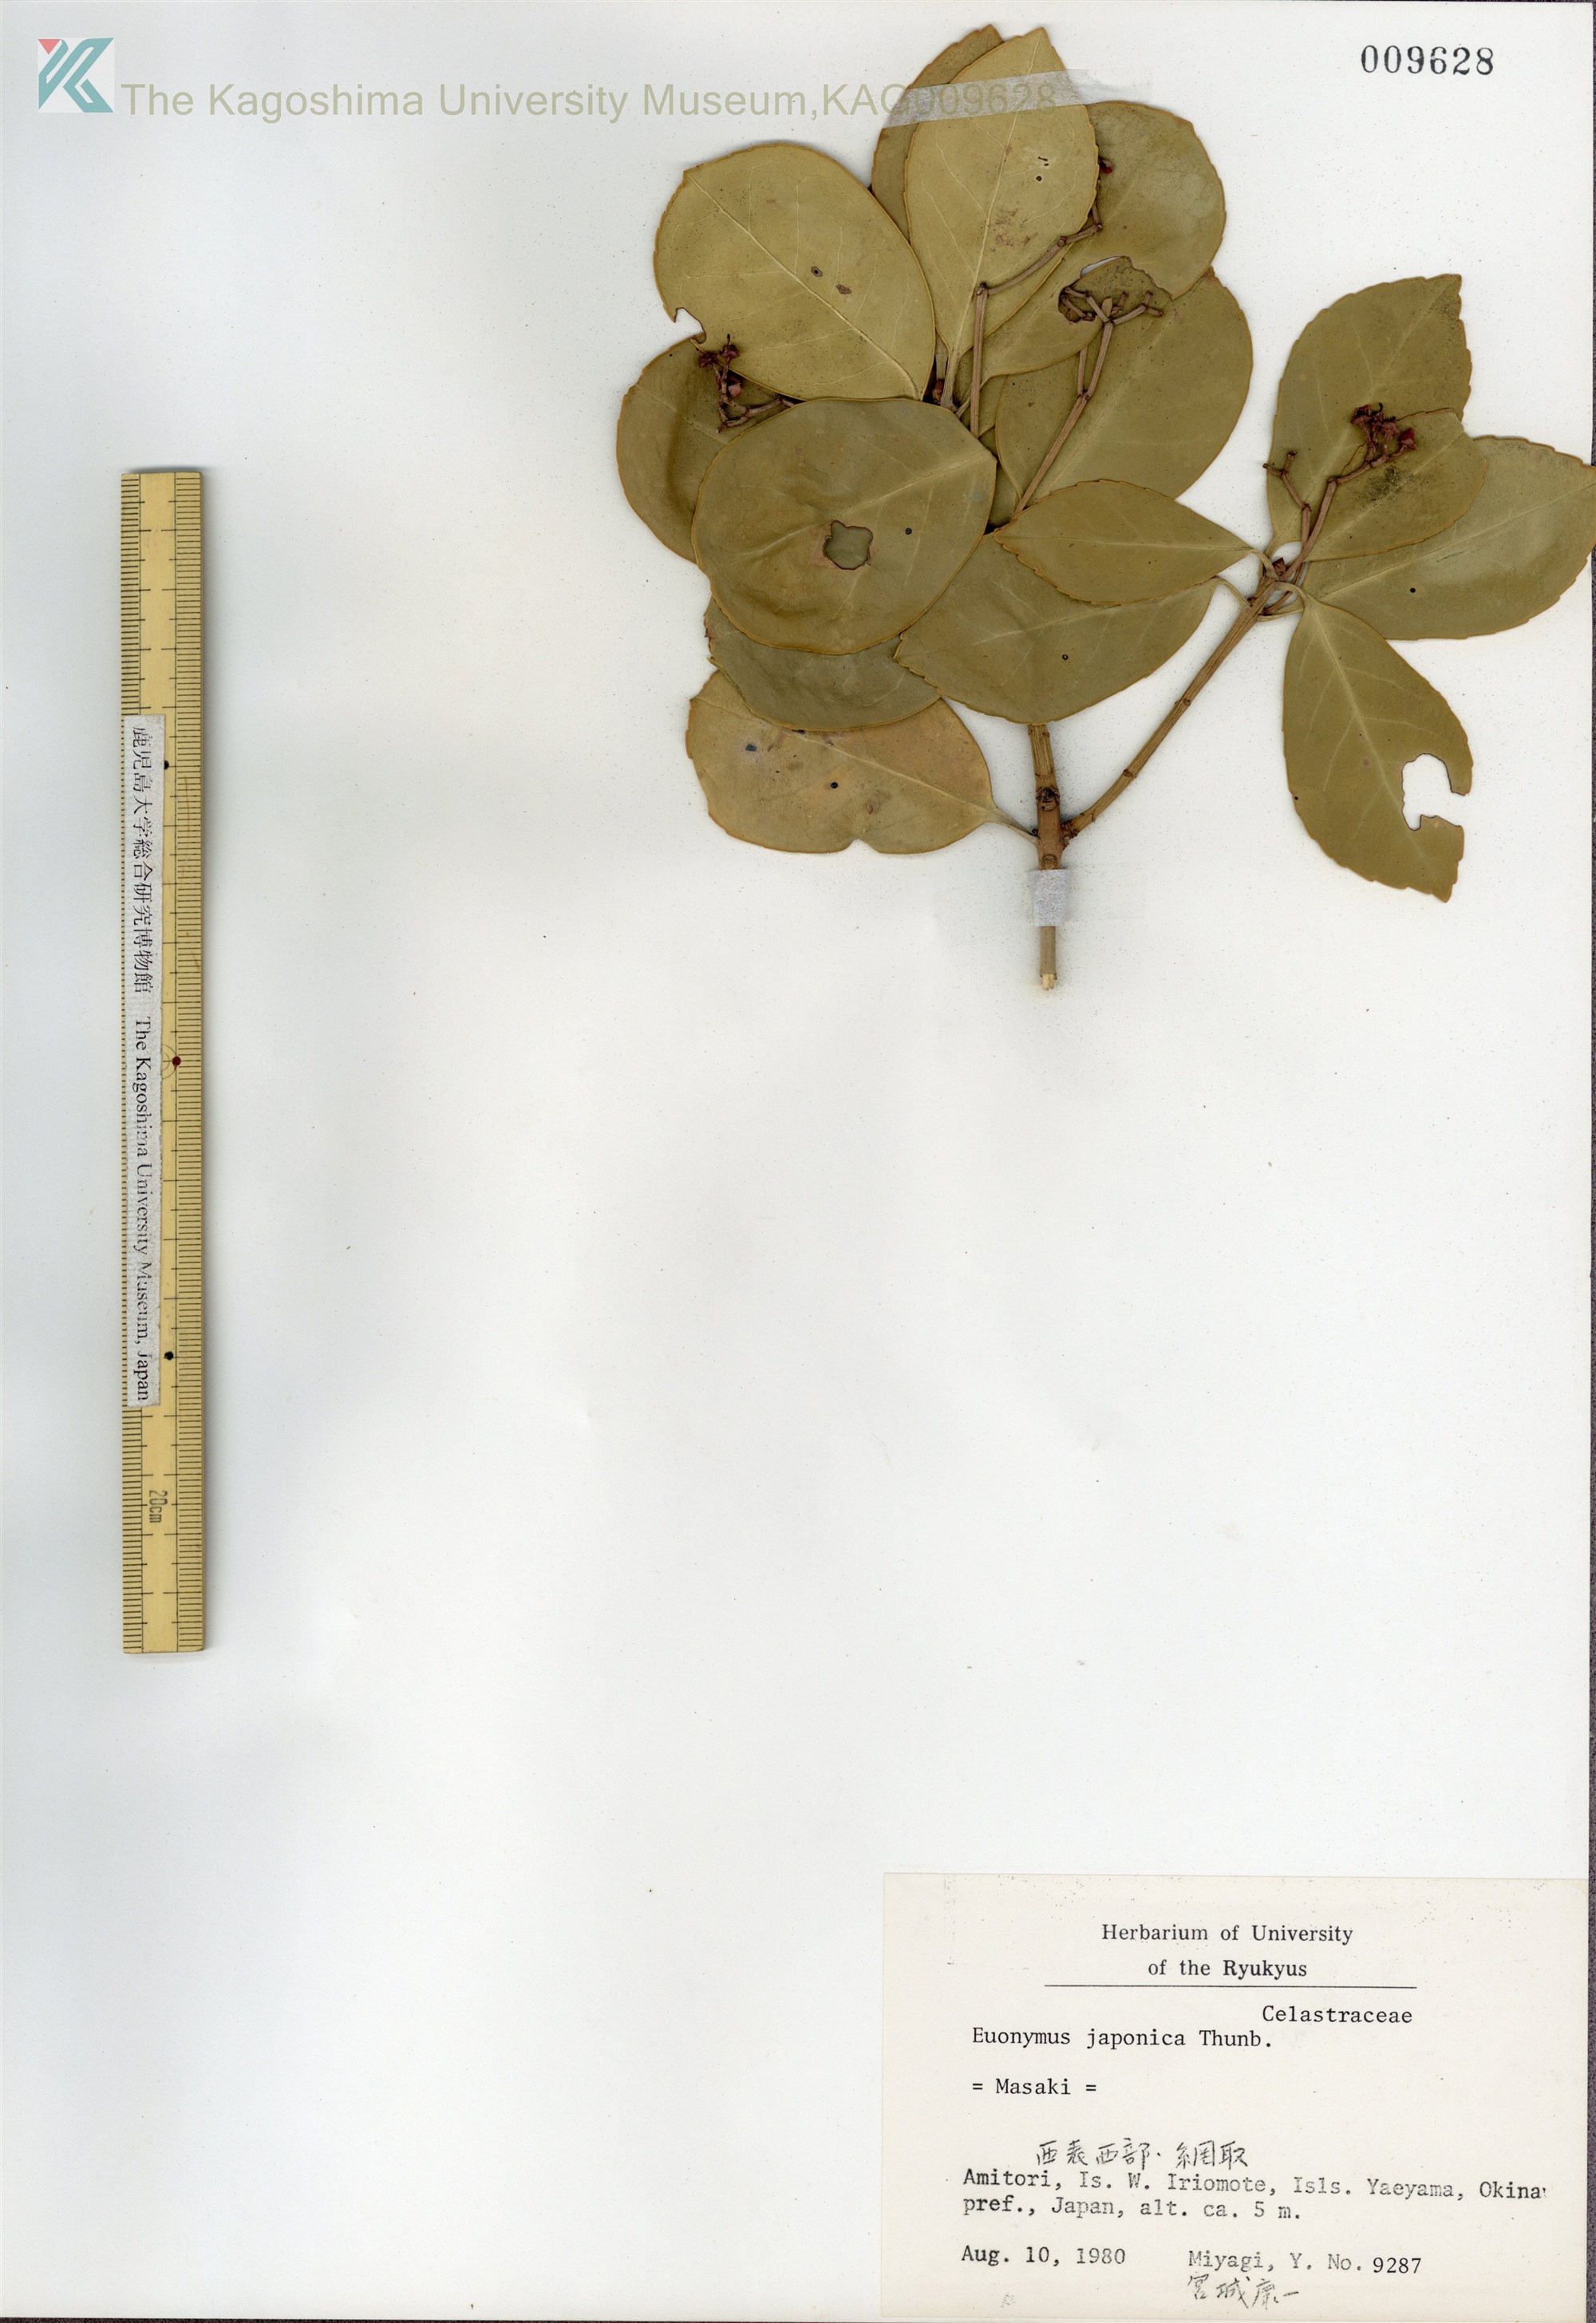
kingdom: Plantae
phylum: Tracheophyta
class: Magnoliopsida
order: Celastrales
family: Celastraceae
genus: Euonymus
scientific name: Euonymus japonicus
